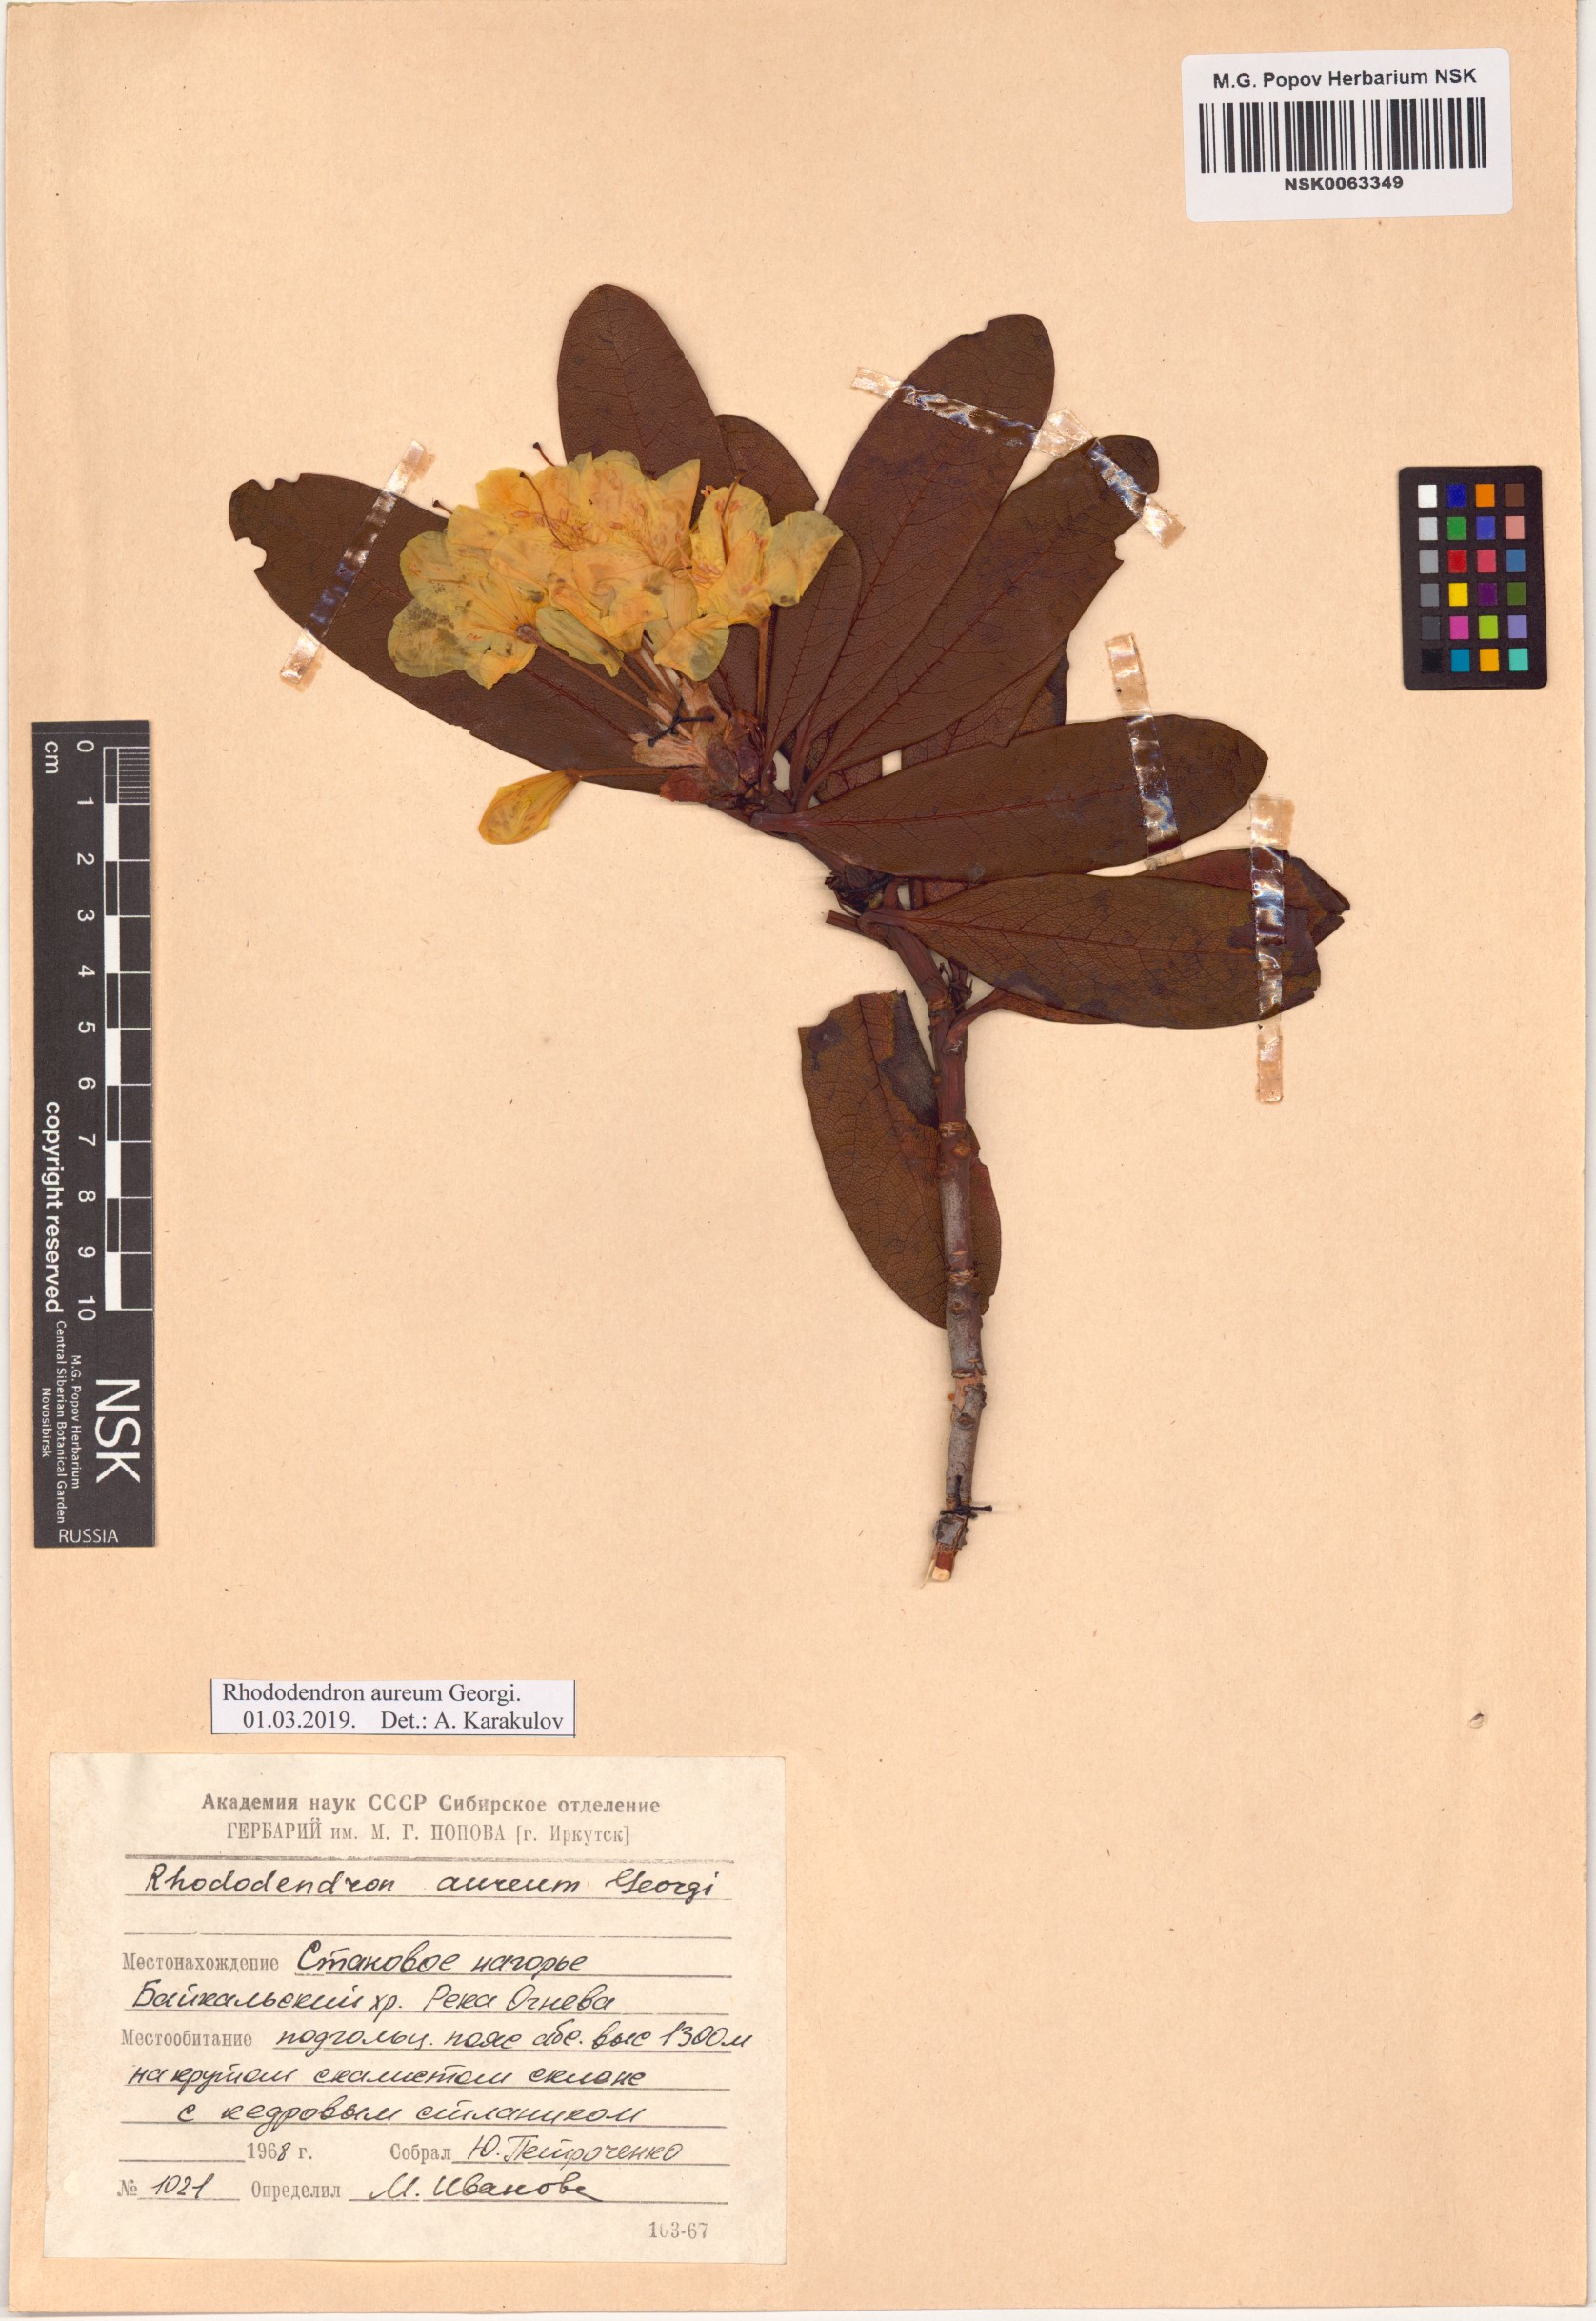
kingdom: Plantae
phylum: Tracheophyta
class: Magnoliopsida
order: Ericales
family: Ericaceae
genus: Rhododendron
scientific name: Rhododendron aureum
